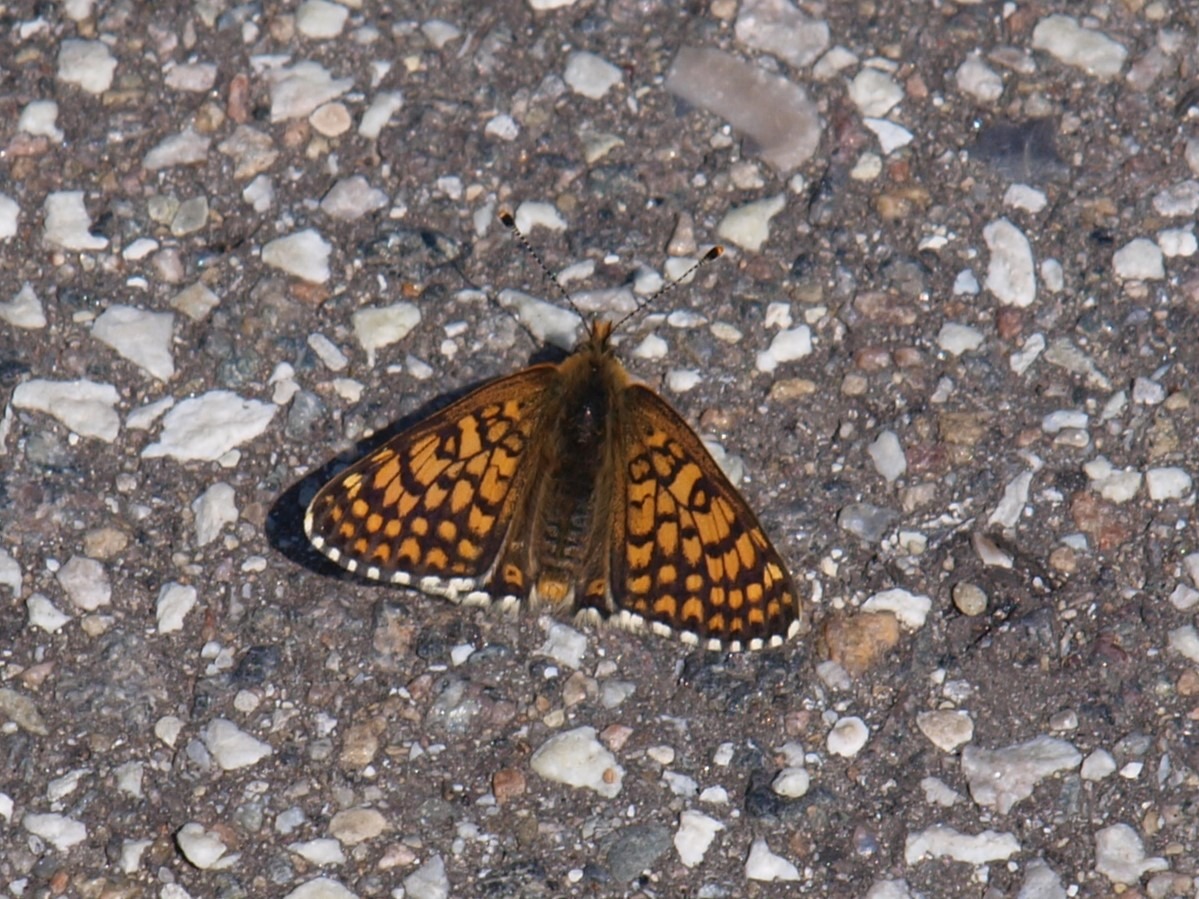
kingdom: Animalia
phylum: Arthropoda
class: Insecta
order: Lepidoptera
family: Nymphalidae
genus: Melitaea
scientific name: Melitaea cinxia
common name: Okkergul pletvinge
